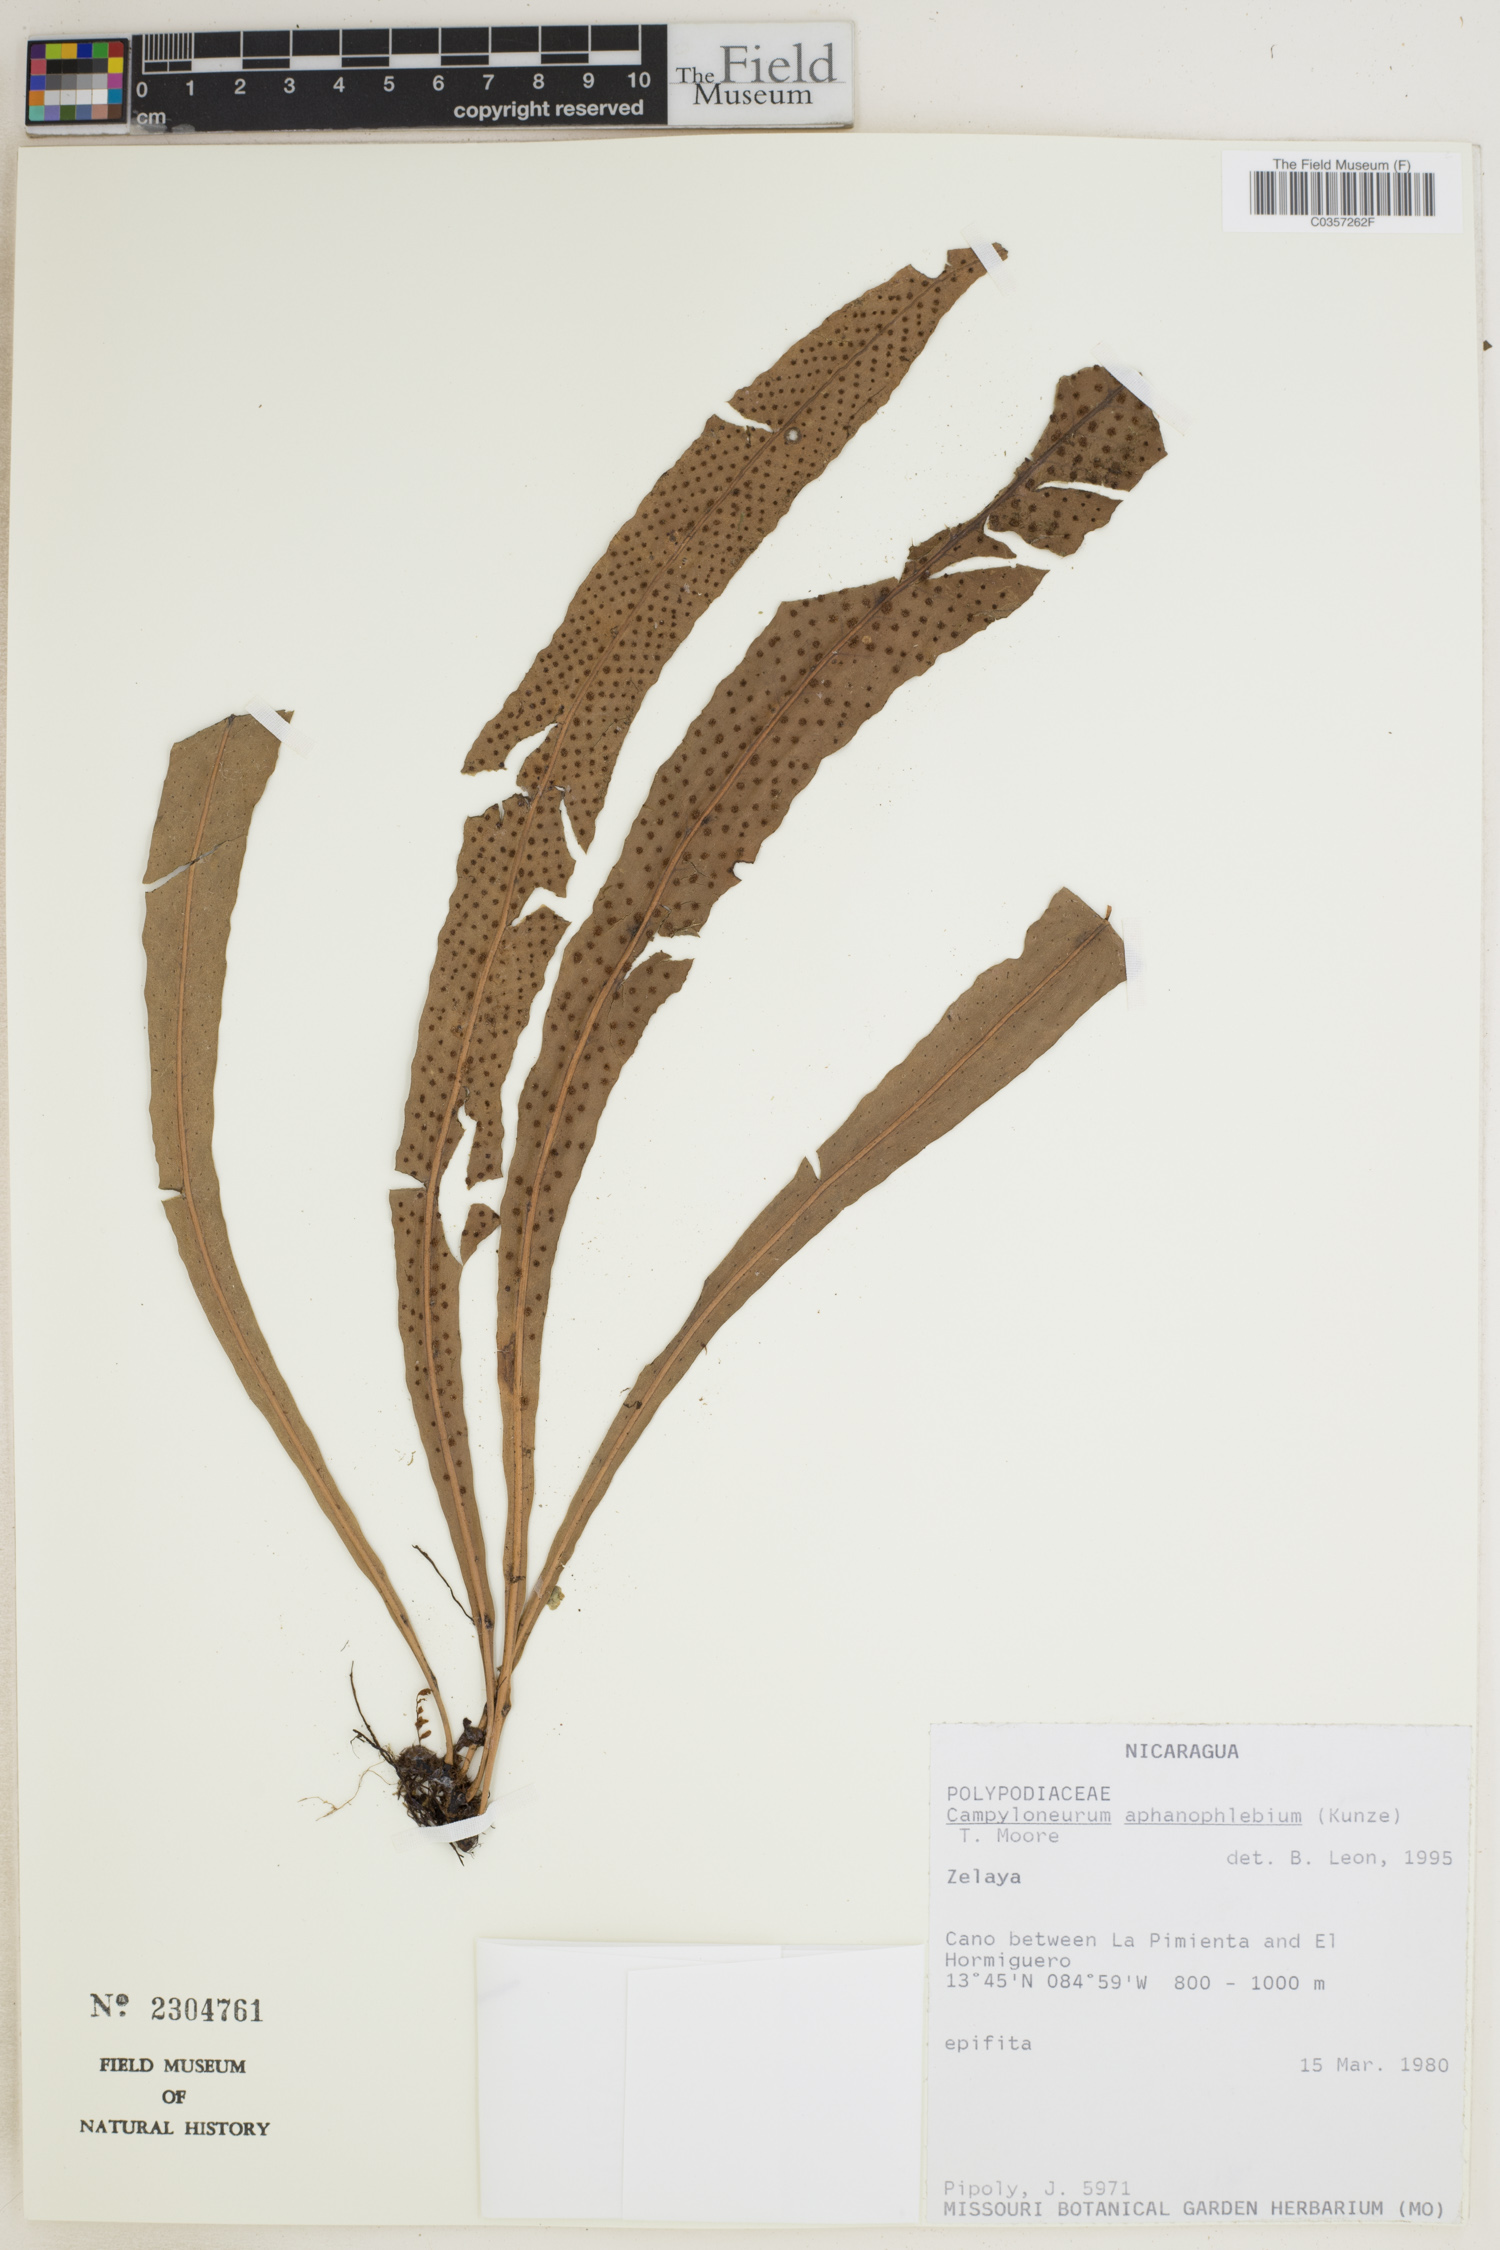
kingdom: Plantae
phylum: Tracheophyta
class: Polypodiopsida
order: Polypodiales
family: Polypodiaceae
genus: Campyloneurum
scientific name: Campyloneurum aphanophlebium
